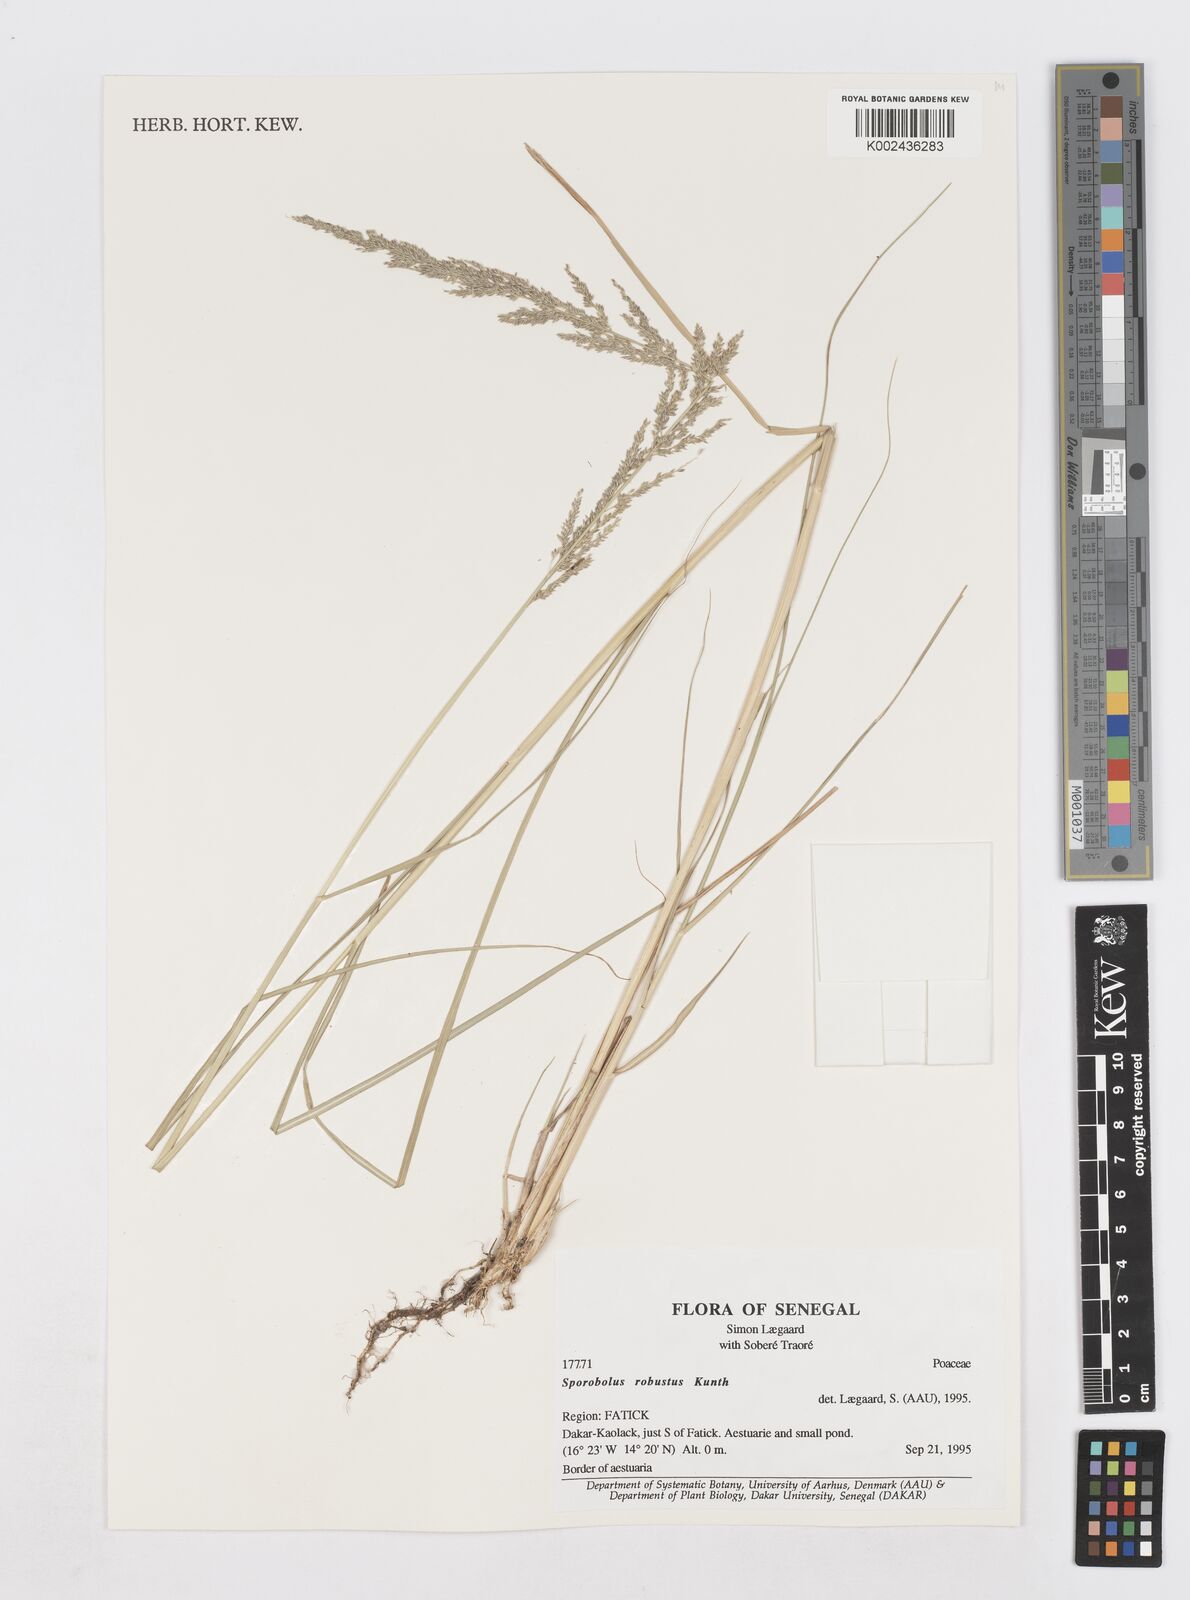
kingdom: Plantae
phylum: Tracheophyta
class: Liliopsida
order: Poales
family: Poaceae
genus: Sporobolus
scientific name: Sporobolus robustus
